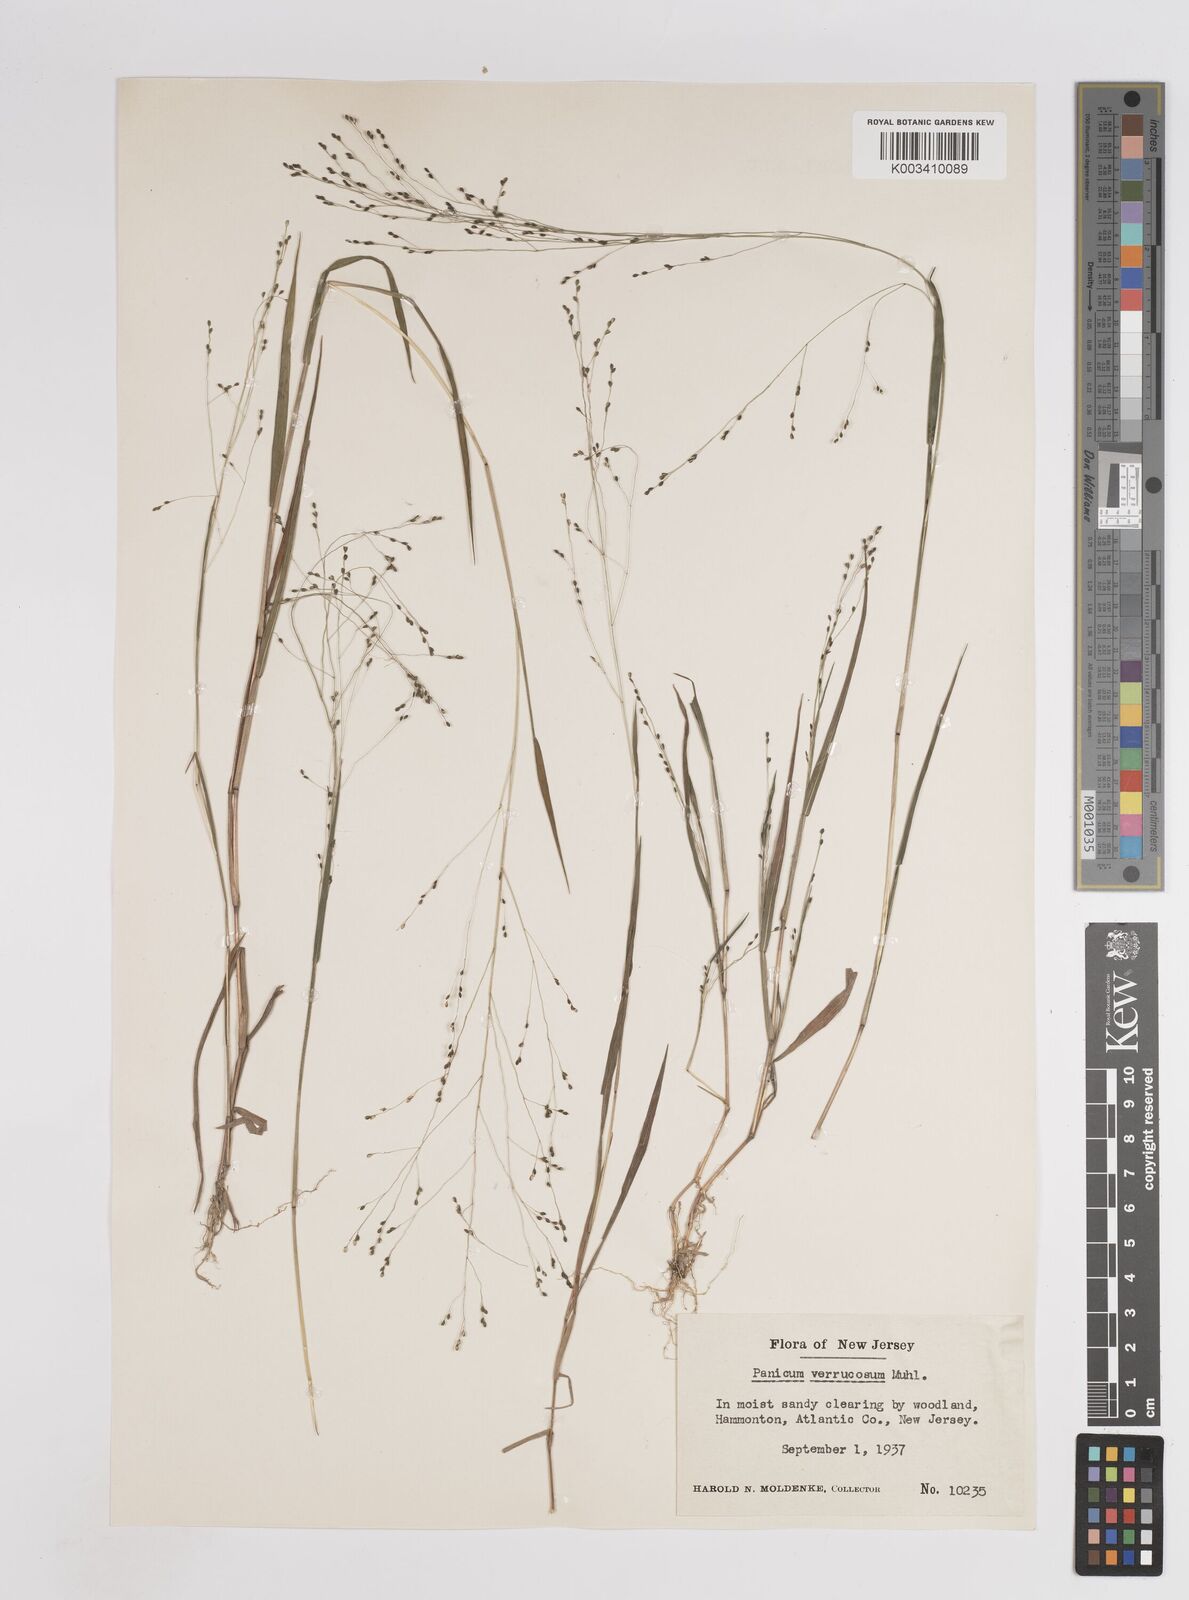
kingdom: Plantae
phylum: Tracheophyta
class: Liliopsida
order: Poales
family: Poaceae
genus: Kellochloa
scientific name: Kellochloa verrucosa
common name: Warty panic grass
